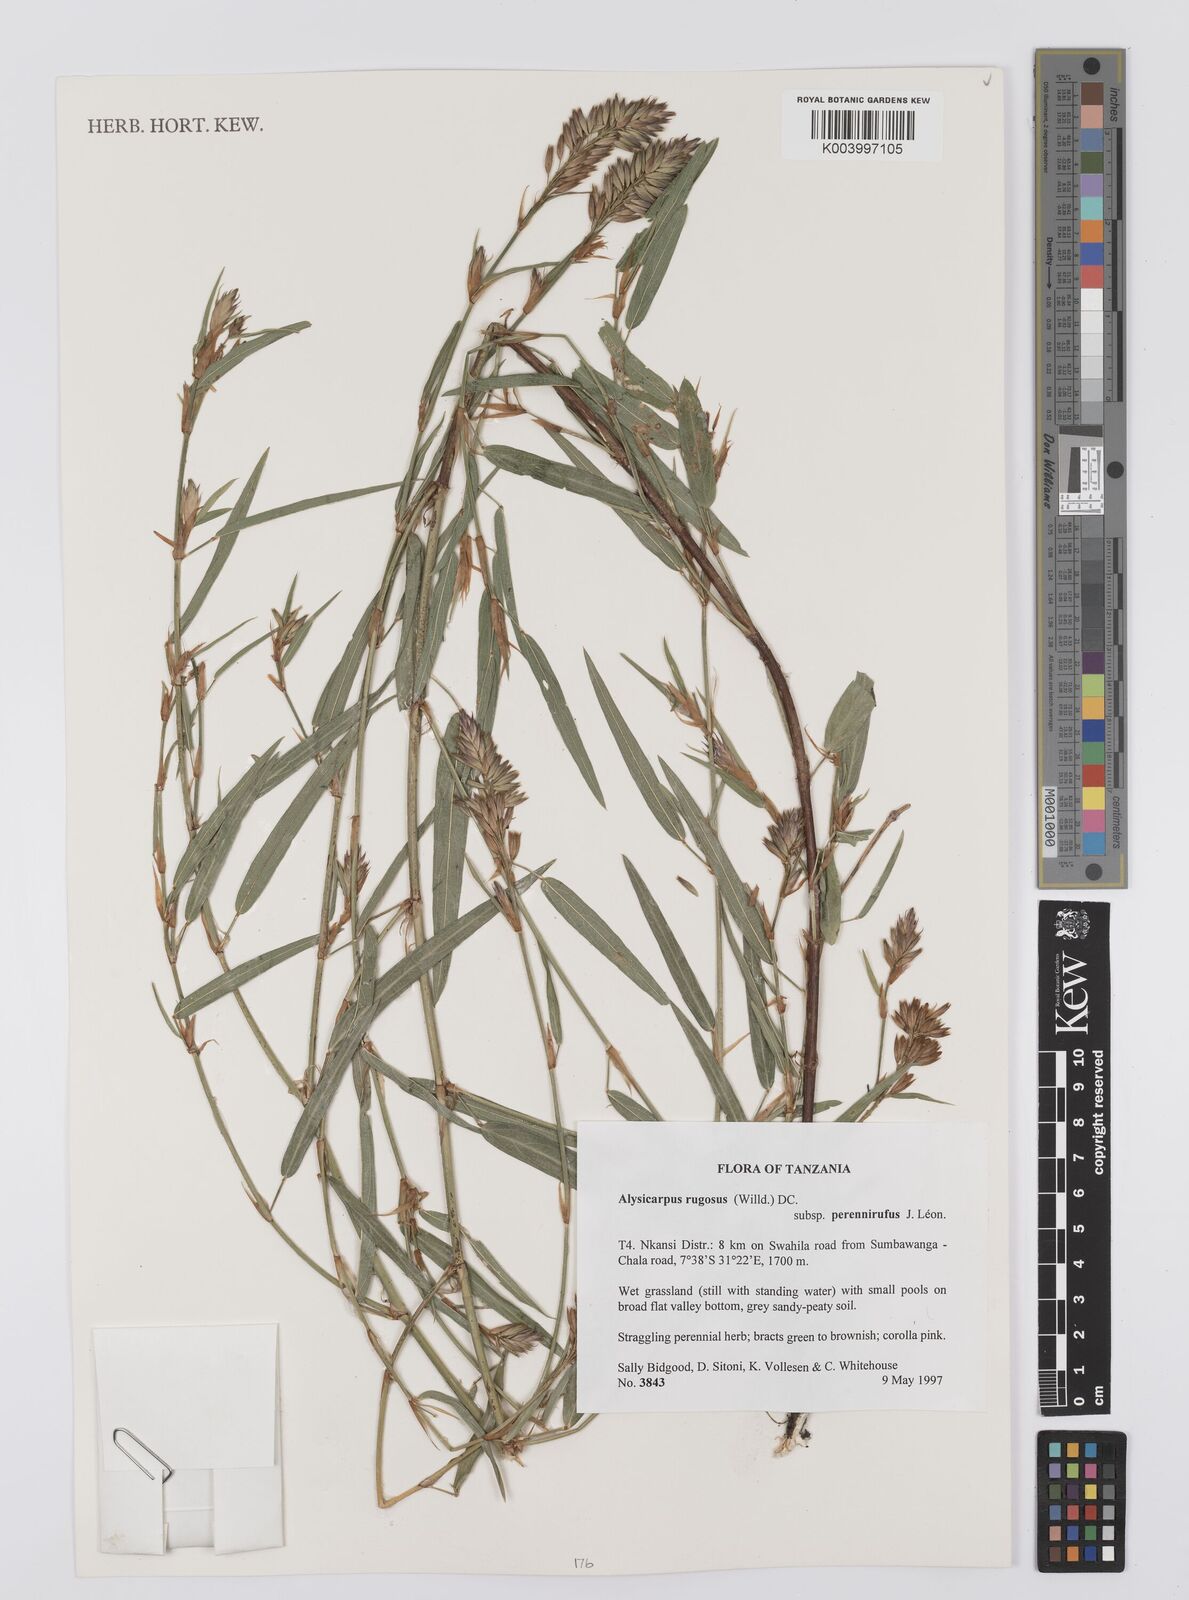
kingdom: Plantae
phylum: Tracheophyta
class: Magnoliopsida
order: Fabales
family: Fabaceae
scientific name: Fabaceae
